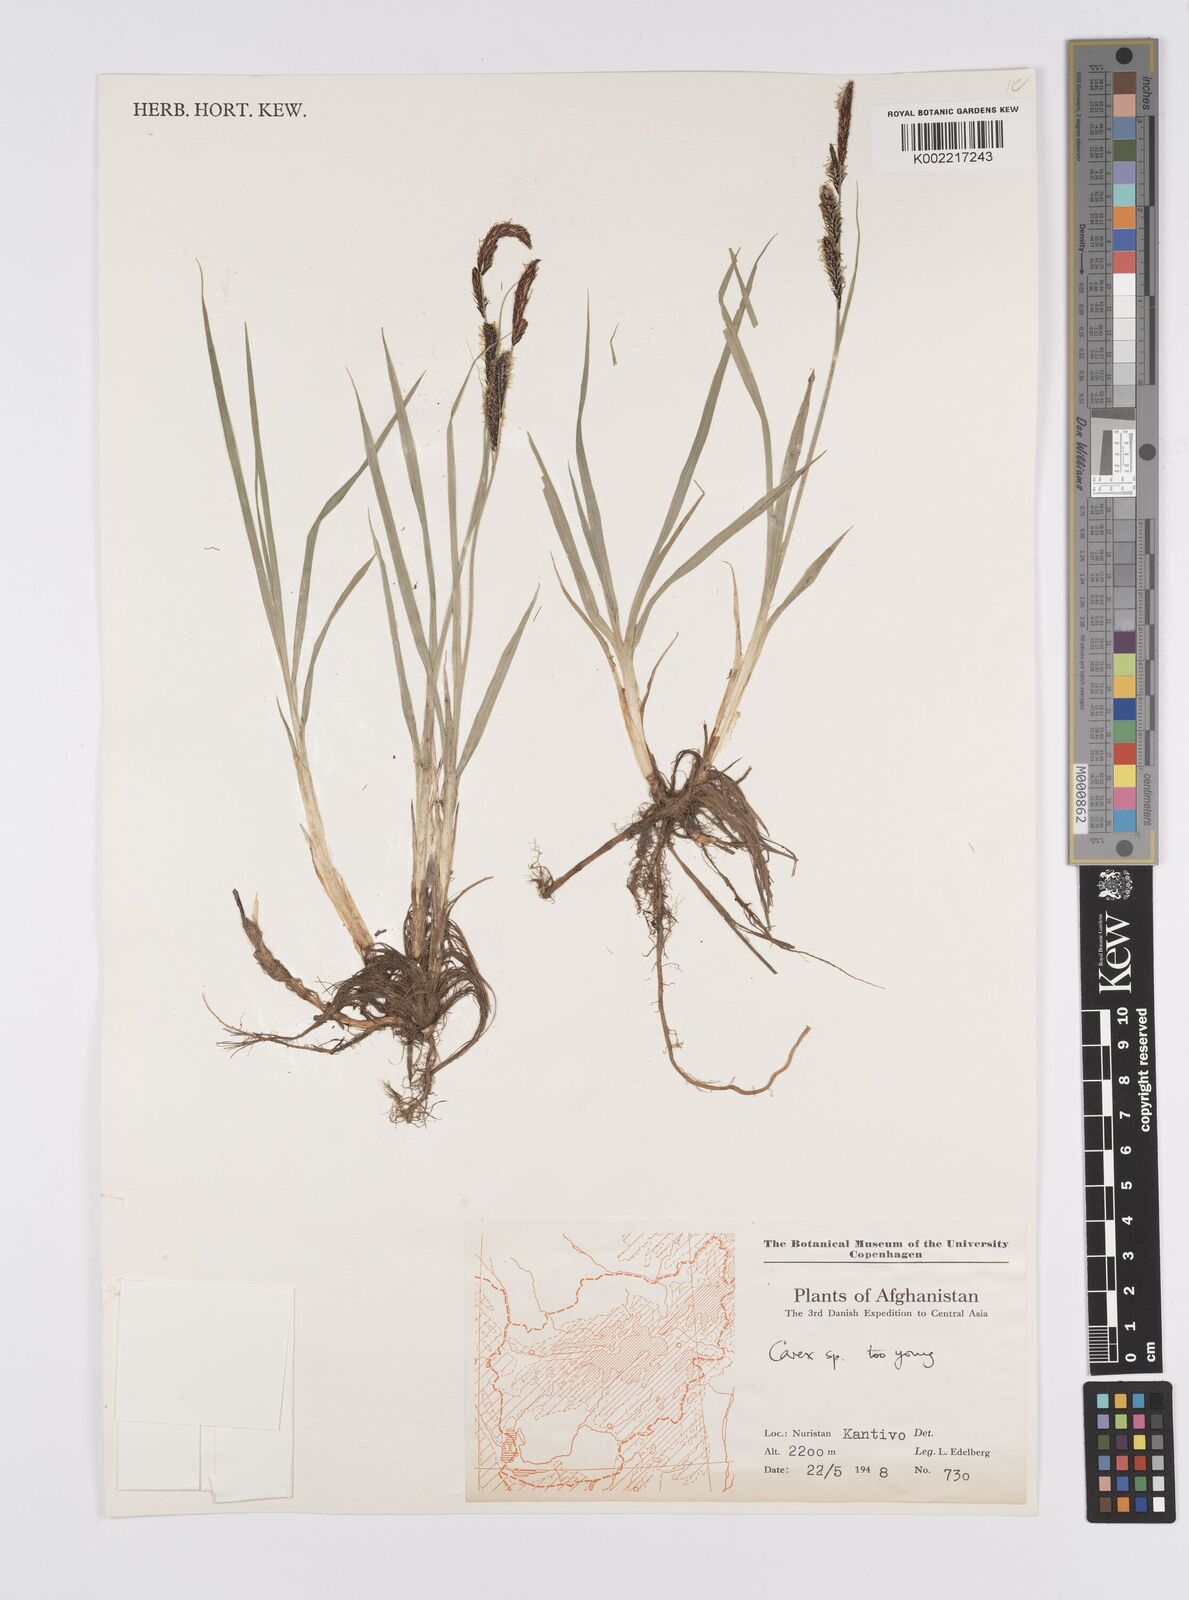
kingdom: Plantae
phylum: Tracheophyta
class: Liliopsida
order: Poales
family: Cyperaceae
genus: Carex
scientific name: Carex
